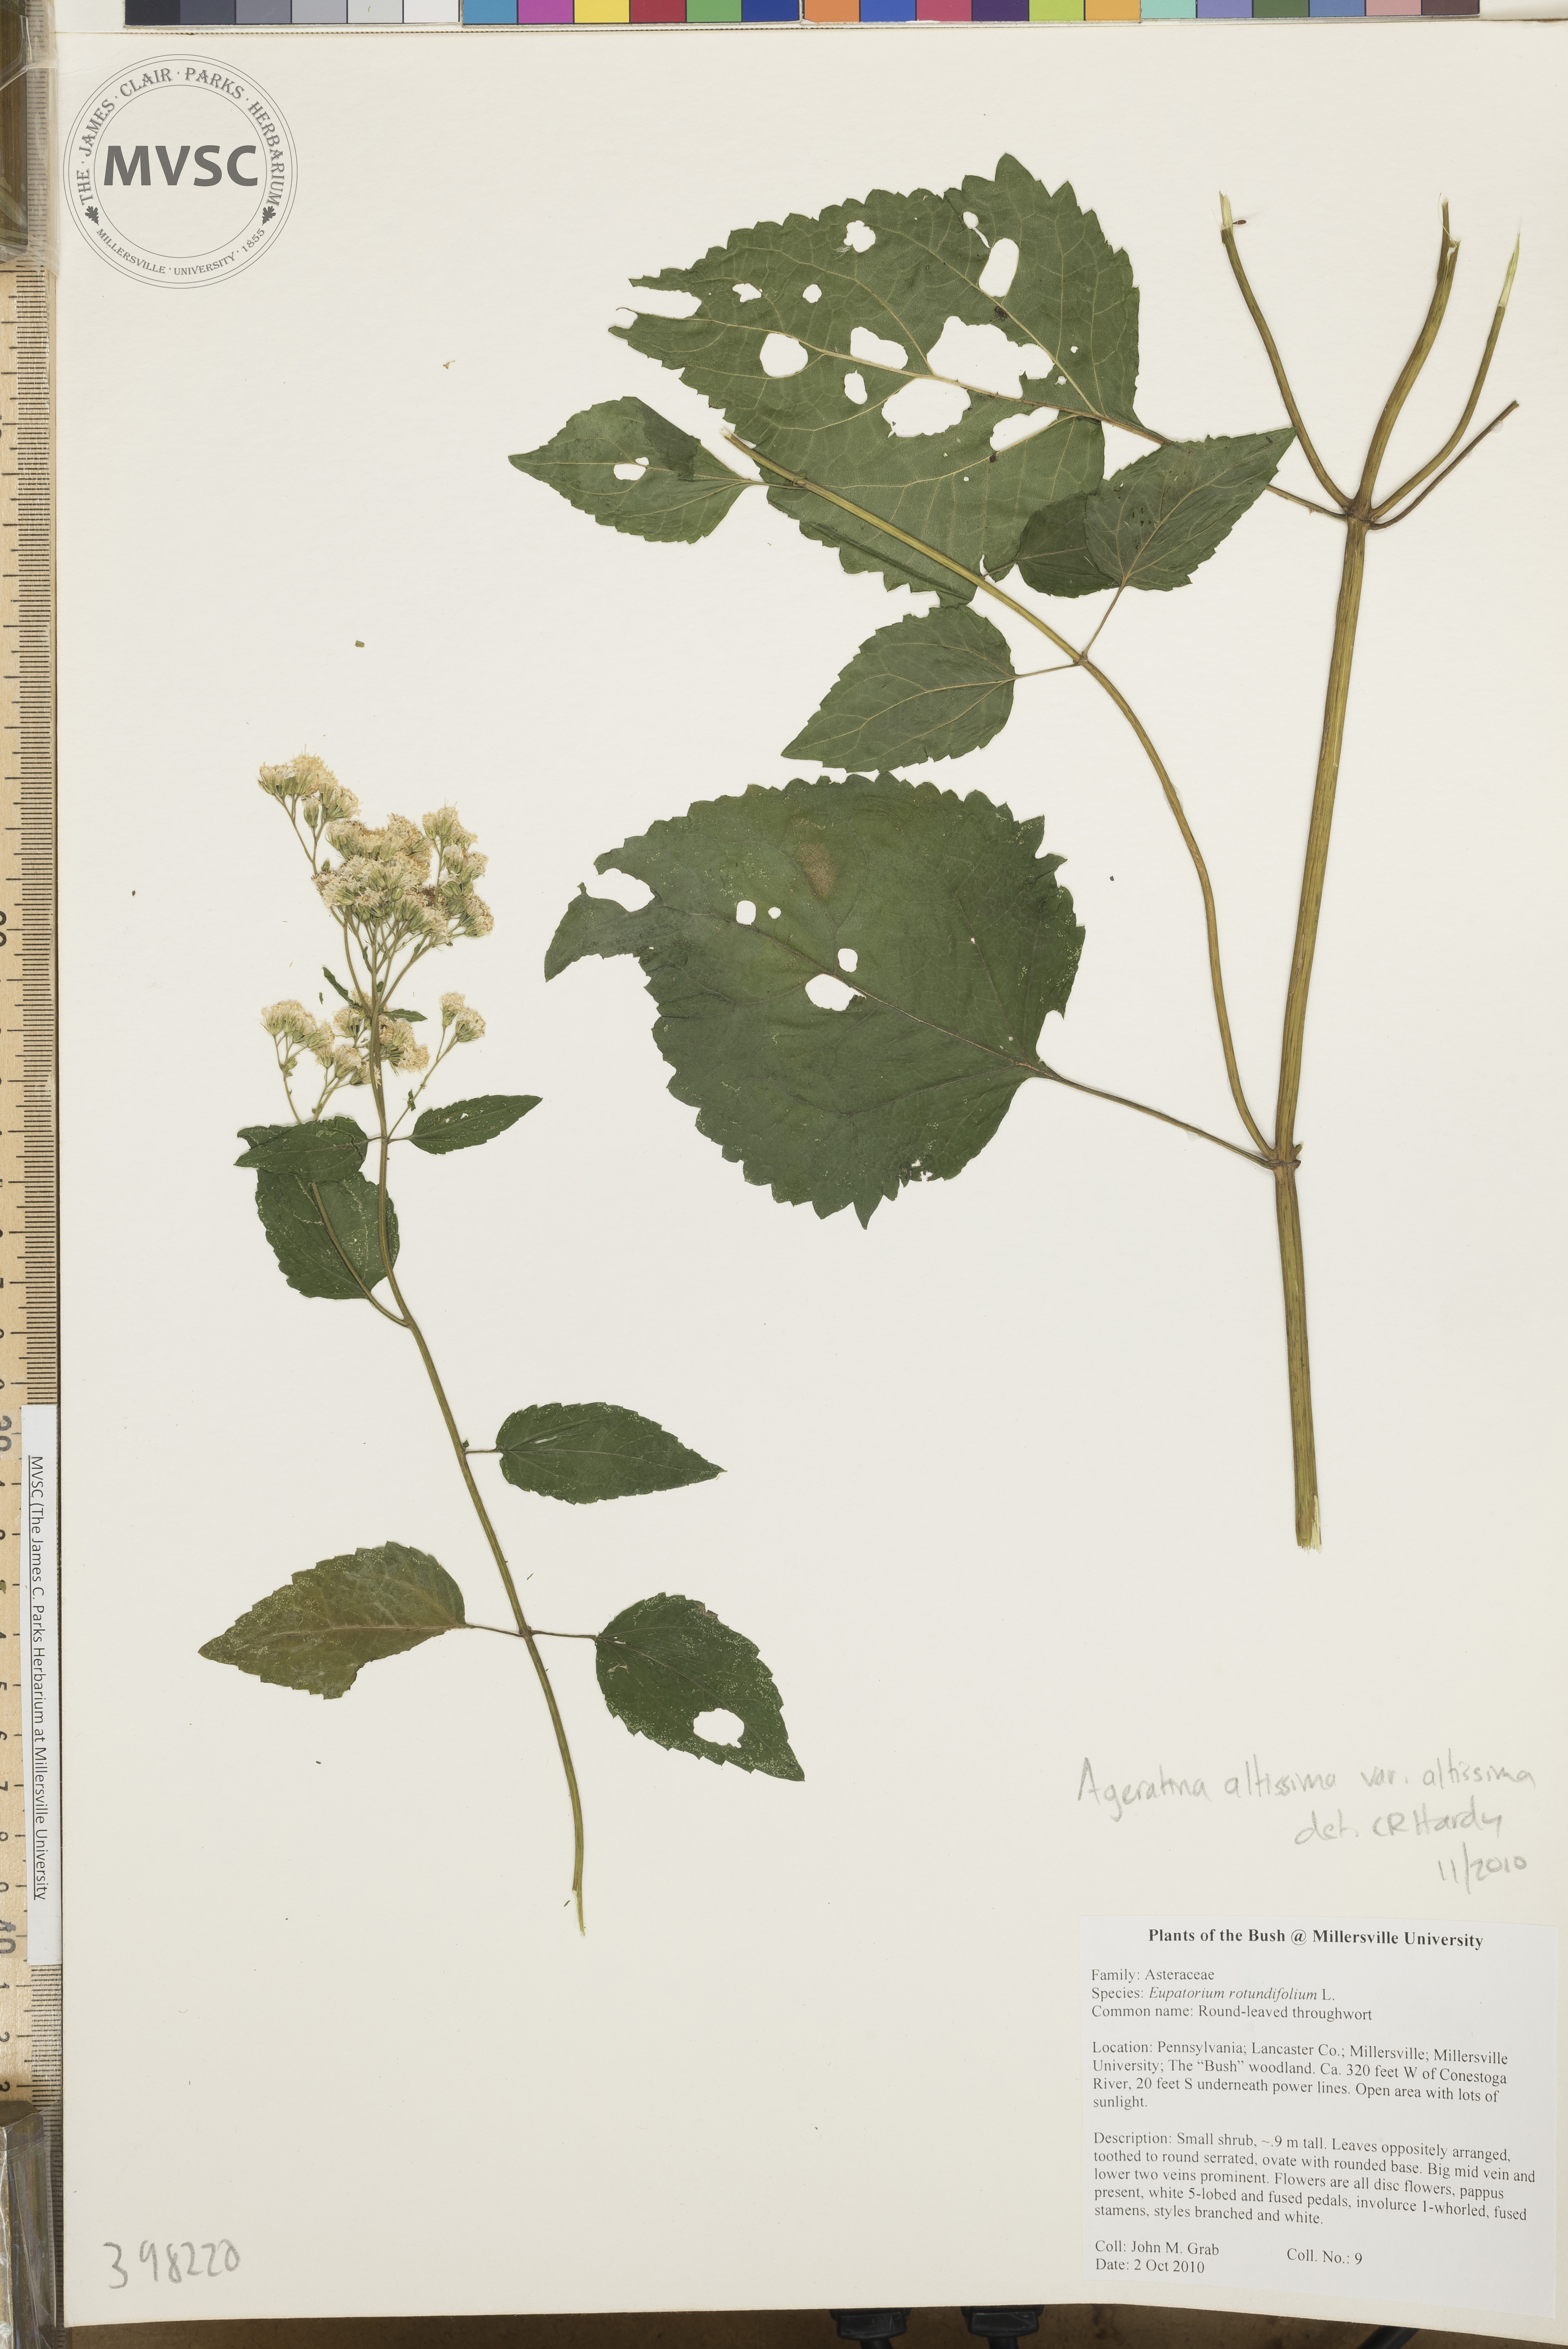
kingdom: Plantae
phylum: Tracheophyta
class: Magnoliopsida
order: Asterales
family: Asteraceae
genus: Ageratina
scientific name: Ageratina altissima
